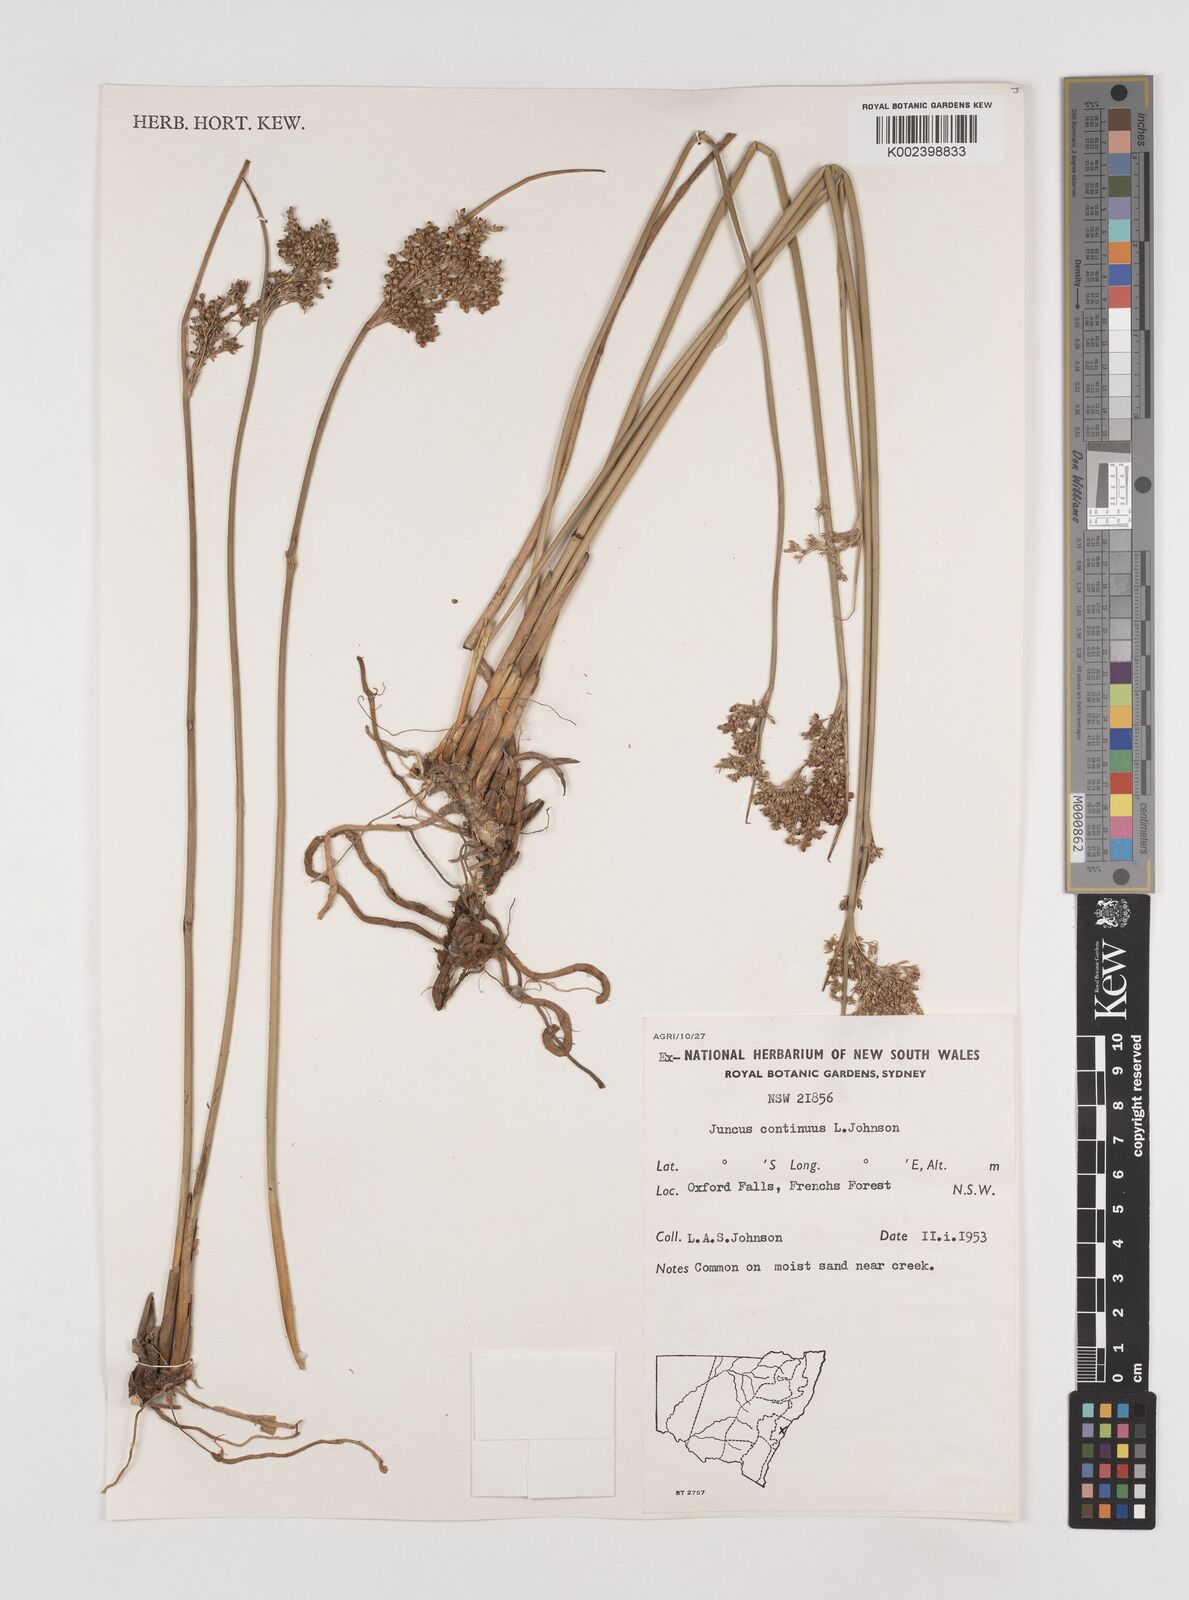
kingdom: Plantae
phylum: Tracheophyta
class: Liliopsida
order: Poales
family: Juncaceae
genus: Juncus
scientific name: Juncus continuus
